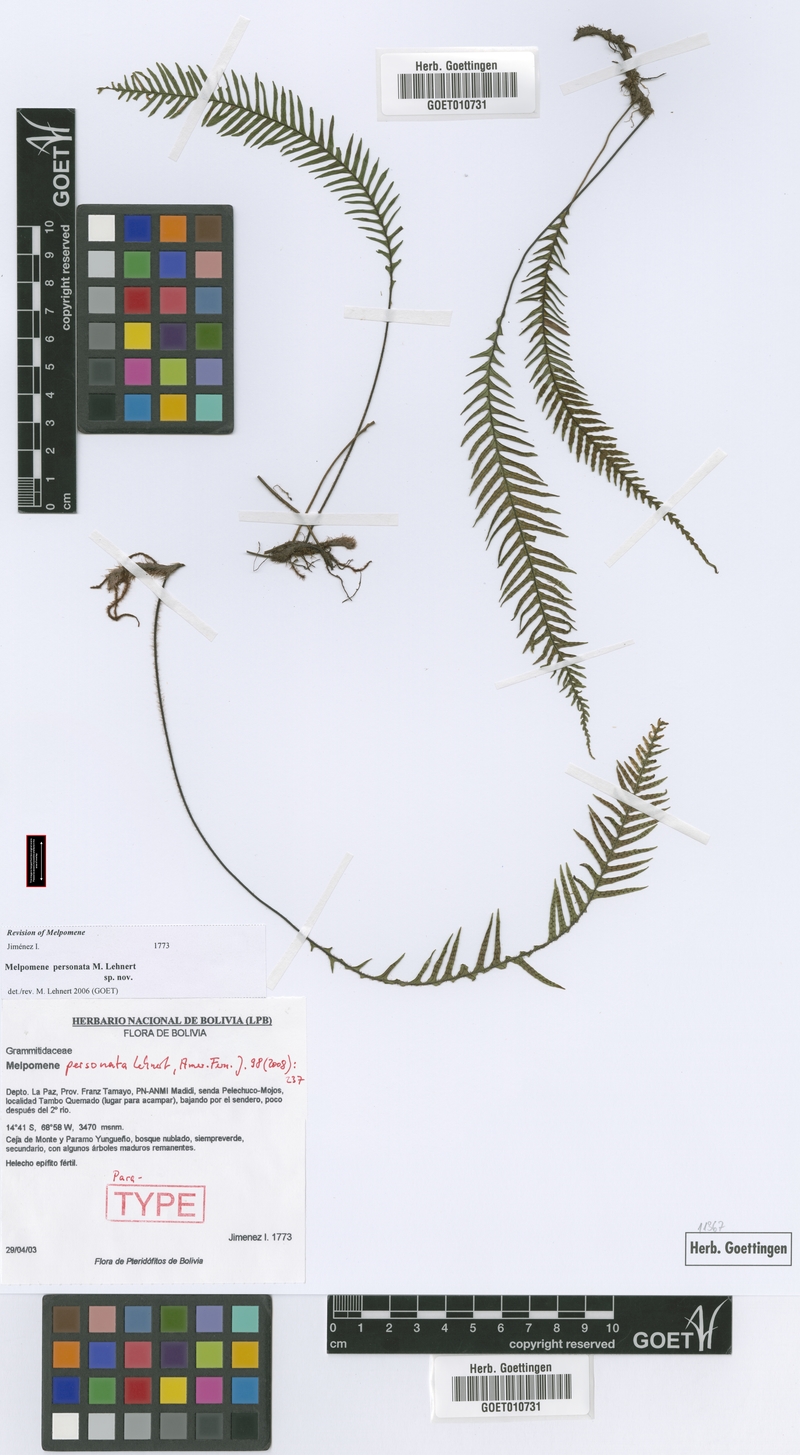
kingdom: Plantae
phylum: Tracheophyta
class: Polypodiopsida
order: Polypodiales
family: Polypodiaceae
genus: Melpomene
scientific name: Melpomene personata
